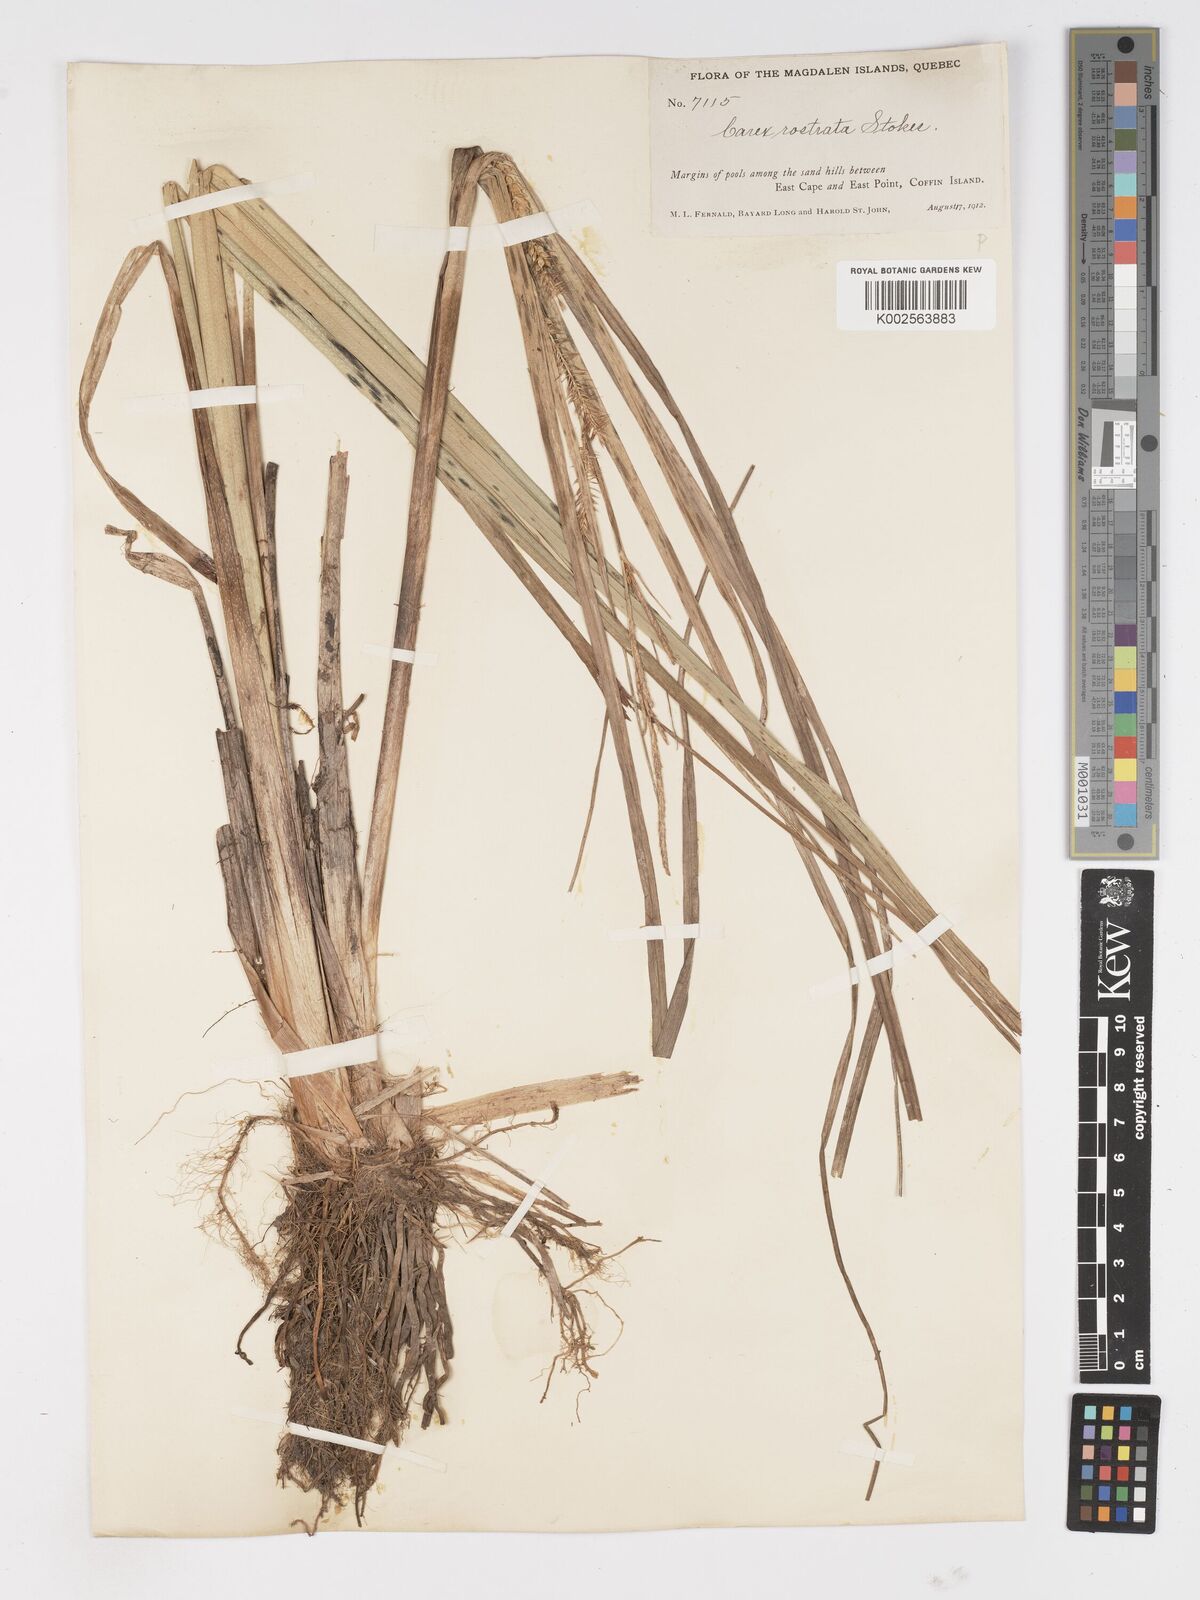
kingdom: Plantae
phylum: Tracheophyta
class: Liliopsida
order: Poales
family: Cyperaceae
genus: Carex
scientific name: Carex rostrata
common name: Bottle sedge
